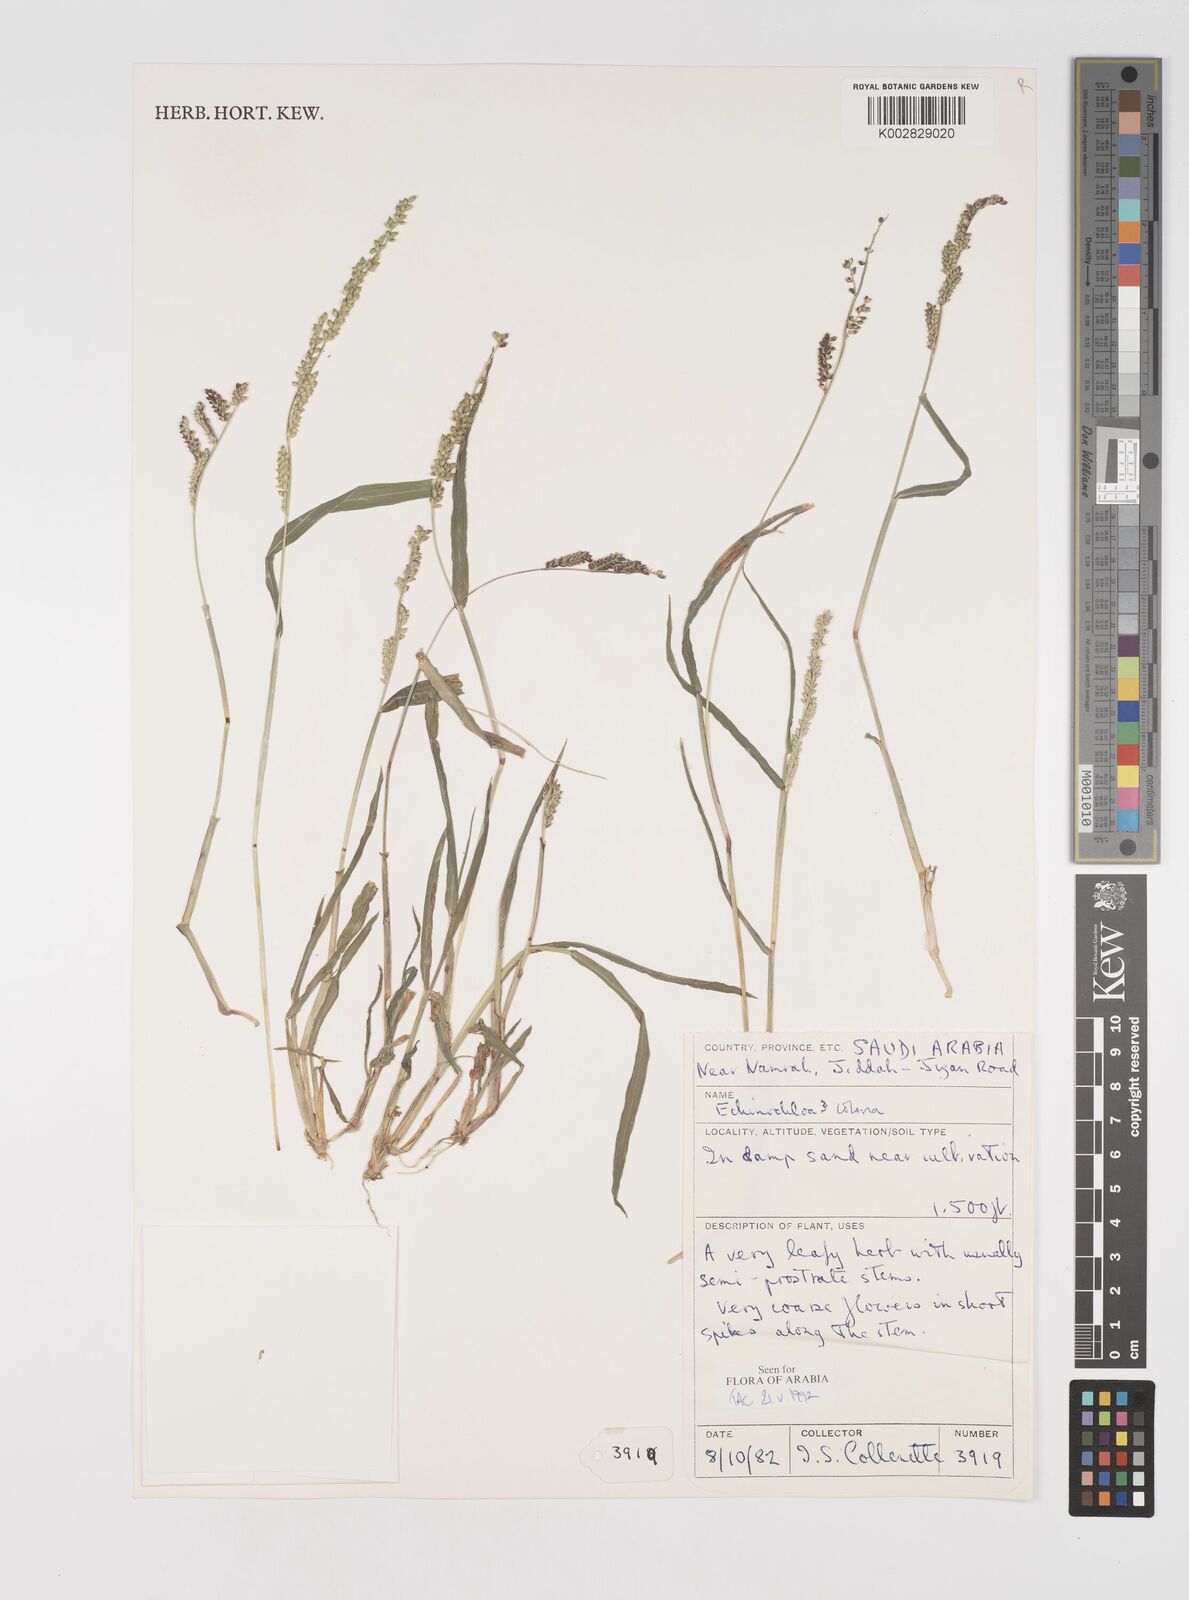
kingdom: Plantae
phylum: Tracheophyta
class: Liliopsida
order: Poales
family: Poaceae
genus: Echinochloa
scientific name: Echinochloa colonum
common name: Jungle rice
